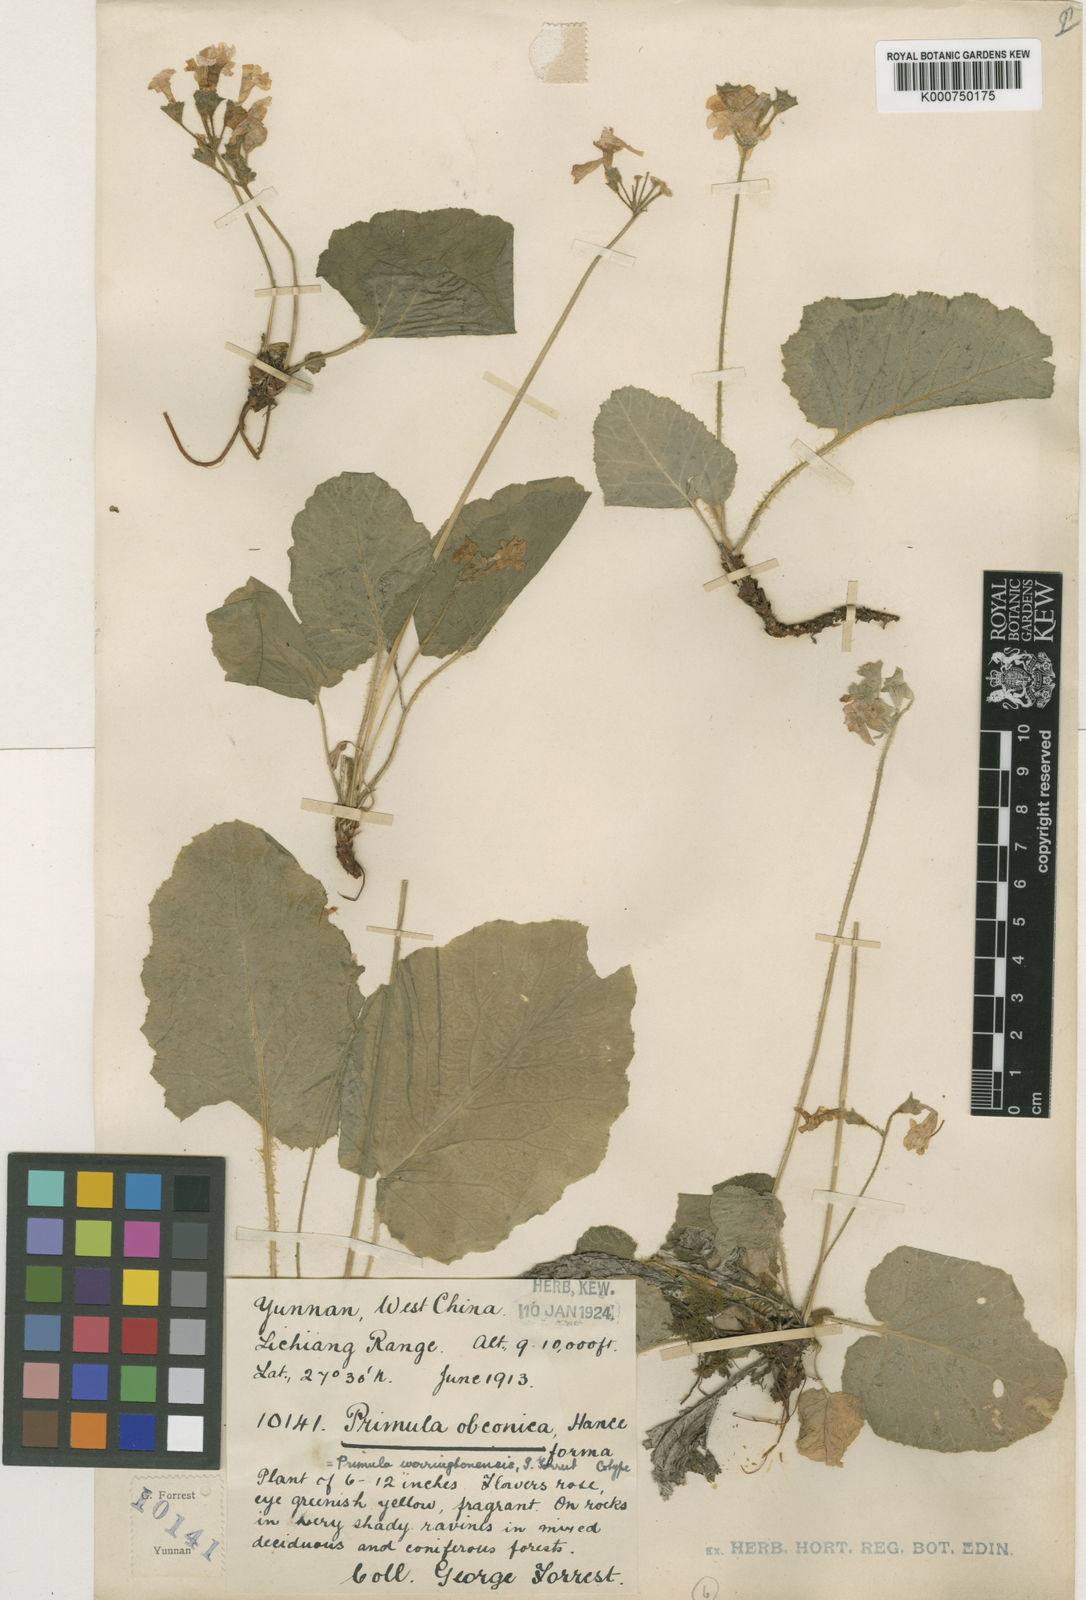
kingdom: Plantae
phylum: Tracheophyta
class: Magnoliopsida
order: Ericales
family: Primulaceae
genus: Primula
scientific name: Primula obconica
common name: German primrose
